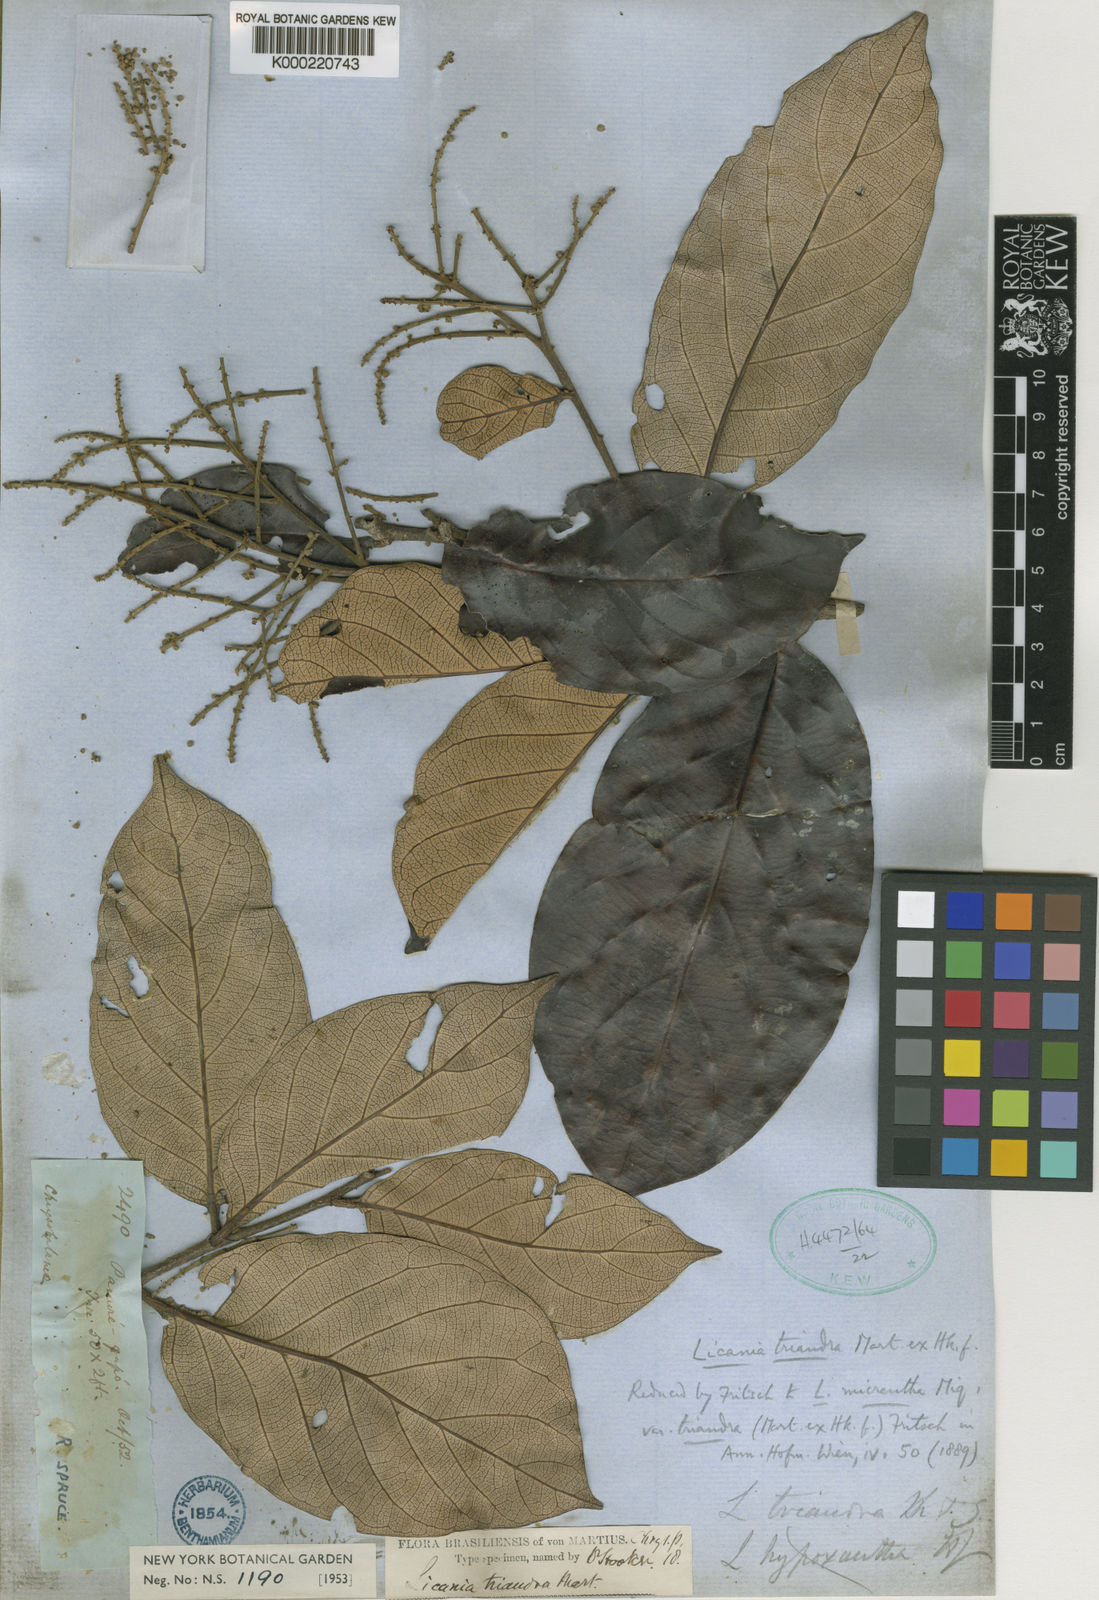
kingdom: Plantae
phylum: Tracheophyta
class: Magnoliopsida
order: Malpighiales
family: Chrysobalanaceae
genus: Licania
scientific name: Licania triandra
